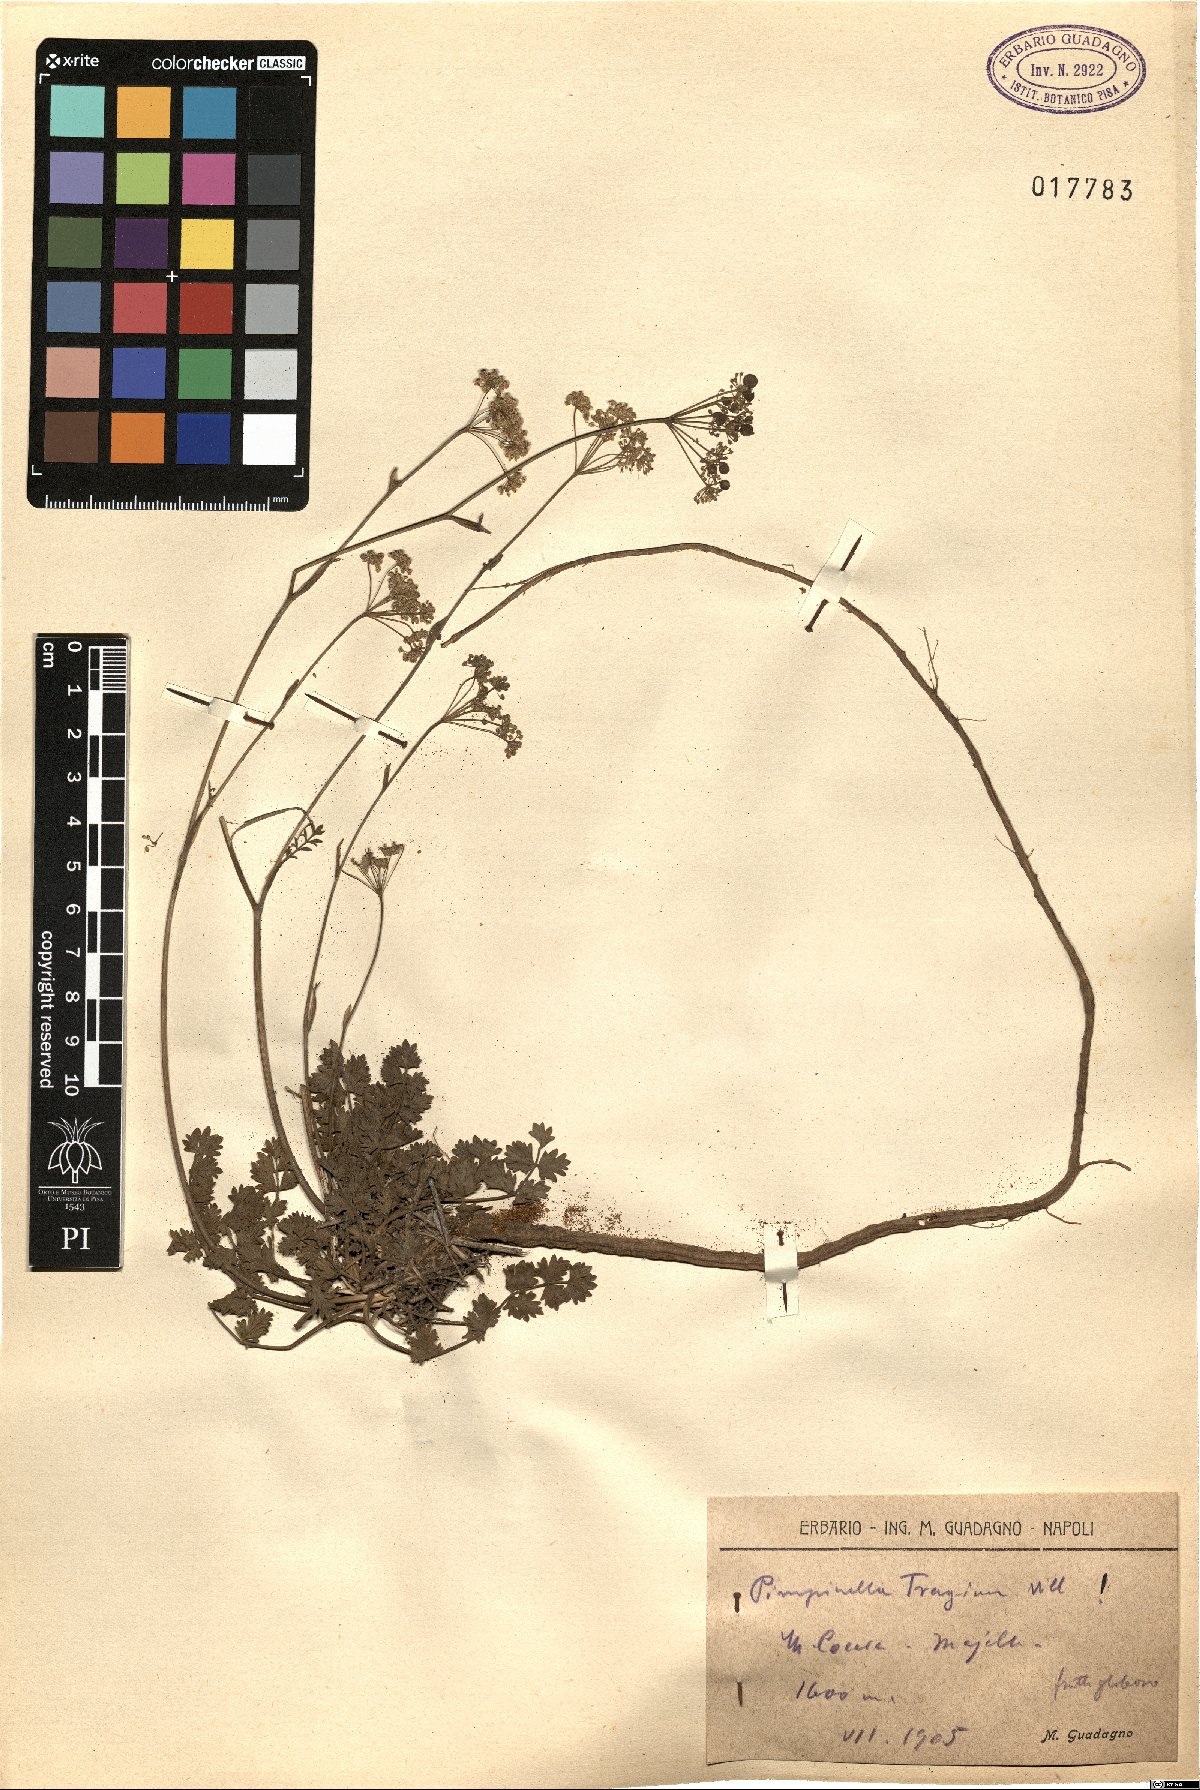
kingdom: Plantae
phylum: Tracheophyta
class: Magnoliopsida
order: Apiales
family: Apiaceae
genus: Pimpinella
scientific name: Pimpinella tragium
